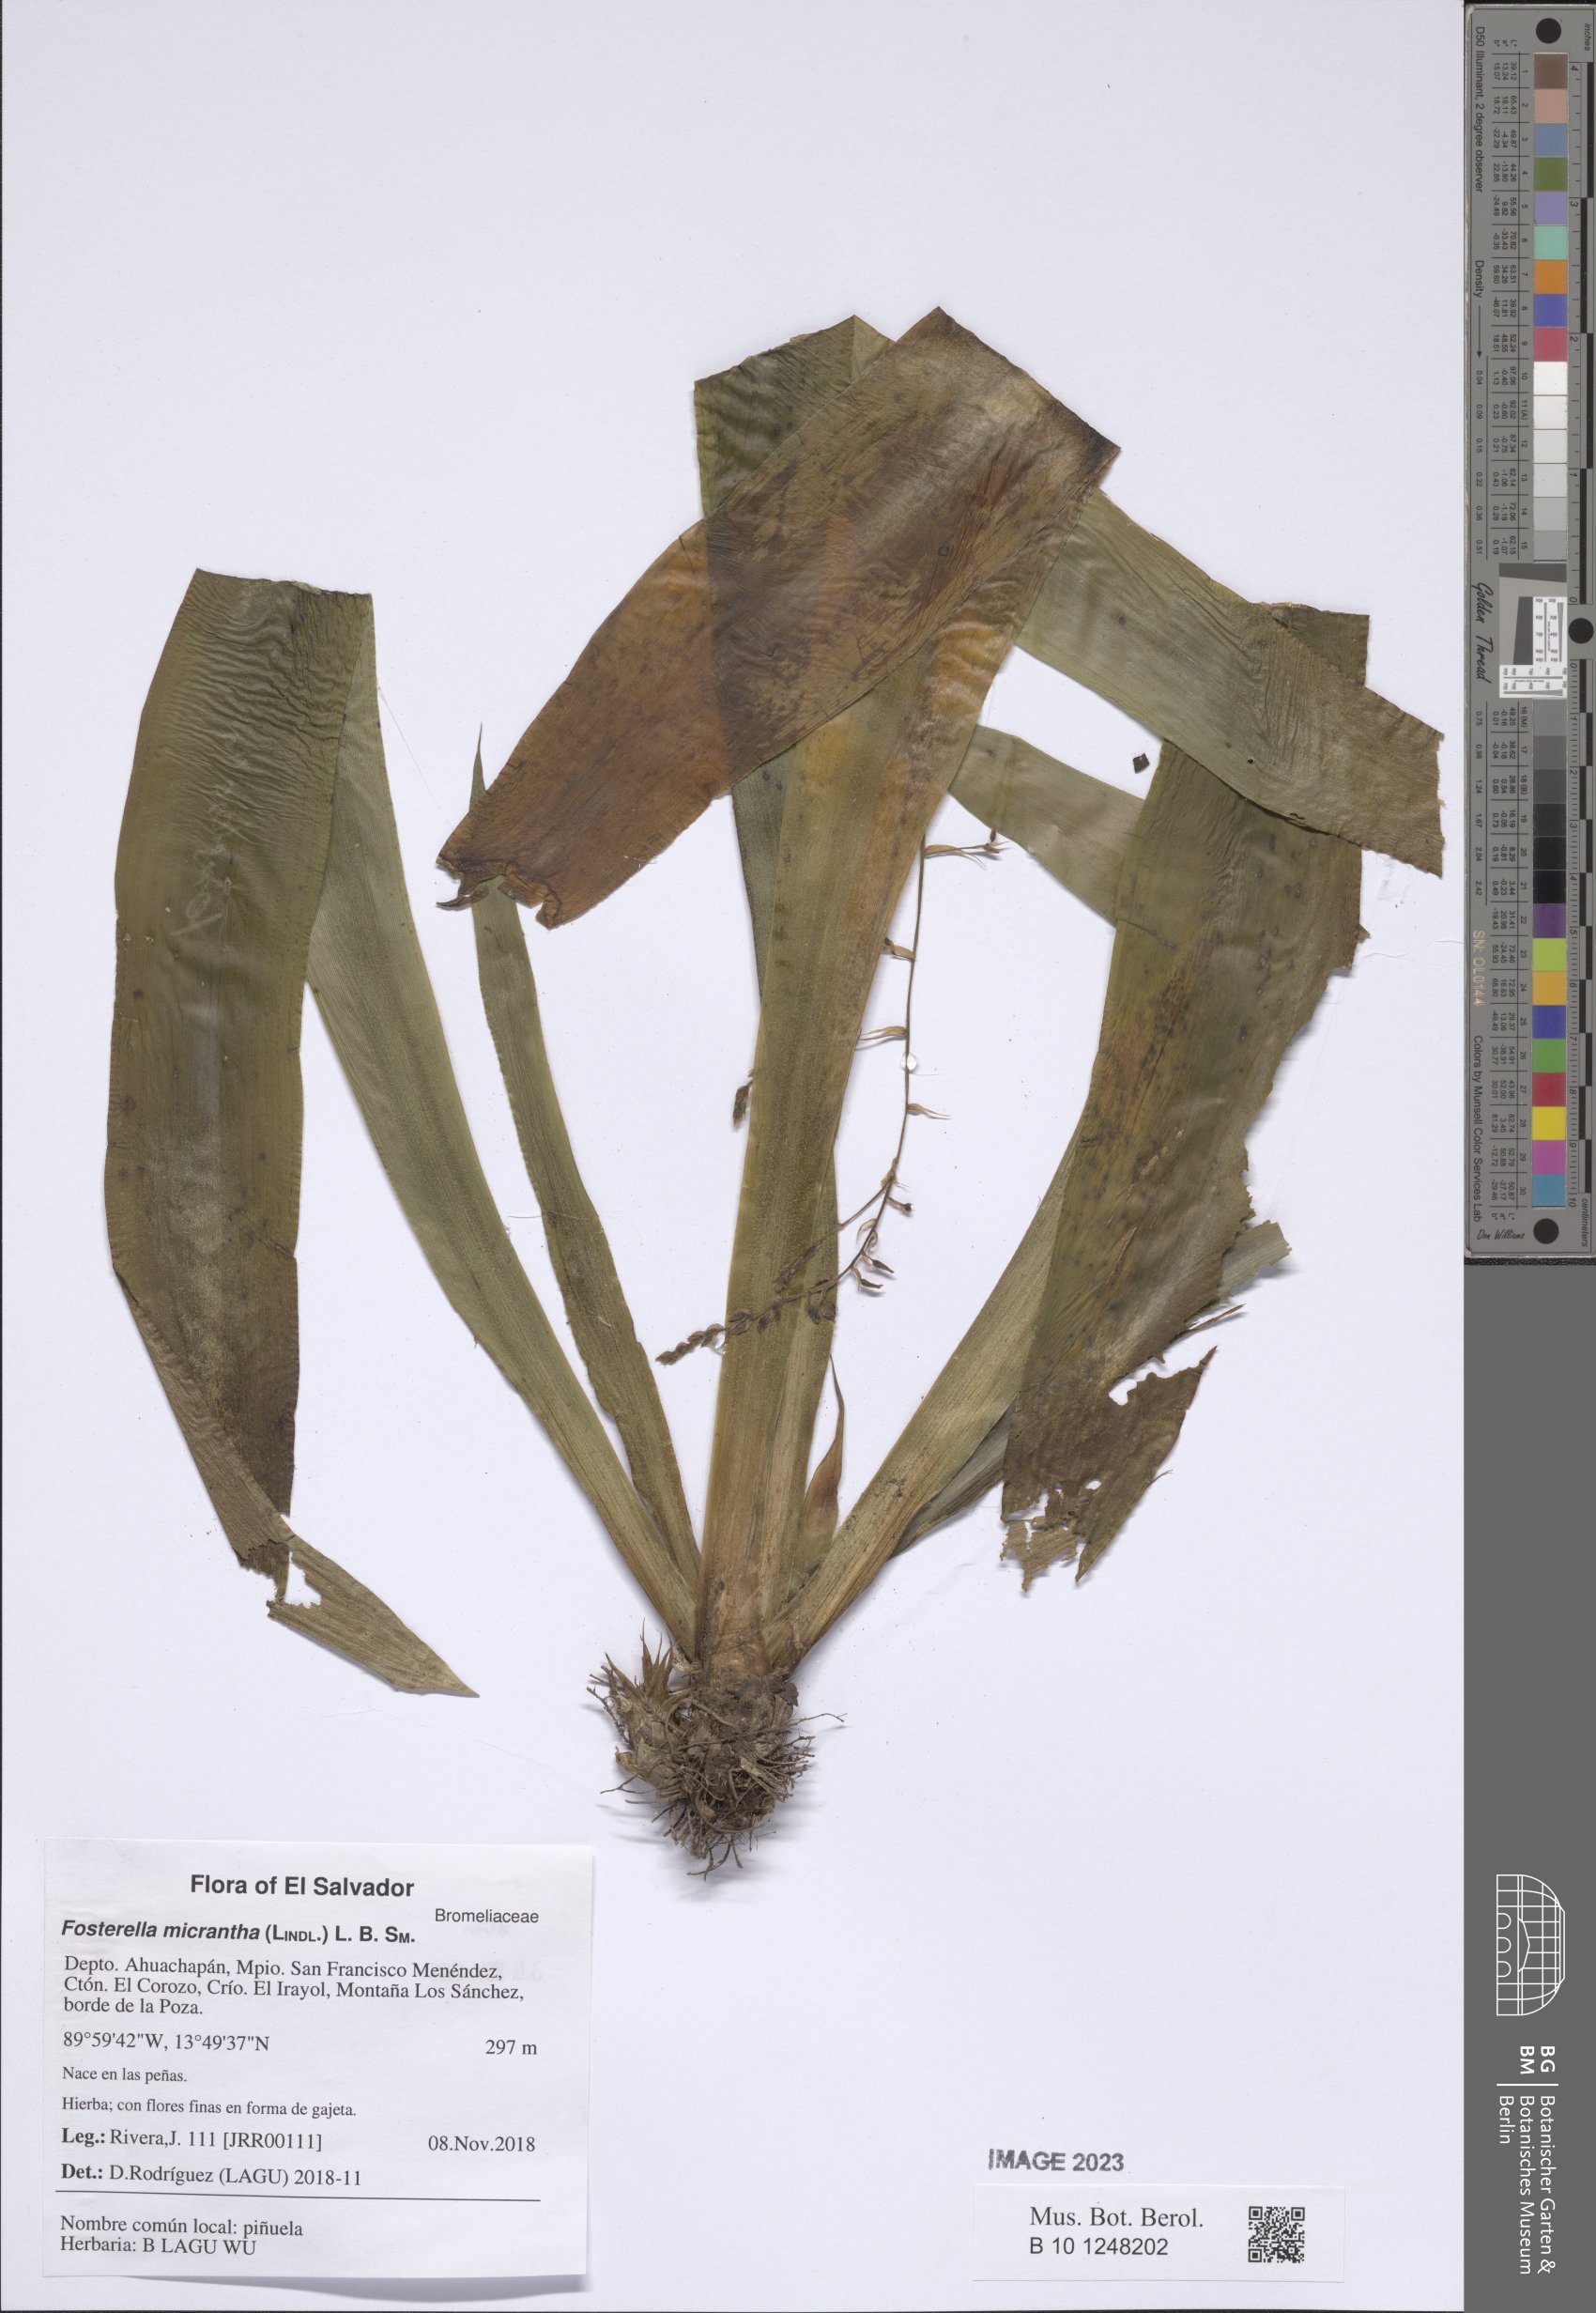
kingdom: Plantae
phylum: Tracheophyta
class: Liliopsida
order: Poales
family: Bromeliaceae
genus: Fosterella
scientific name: Fosterella micrantha
